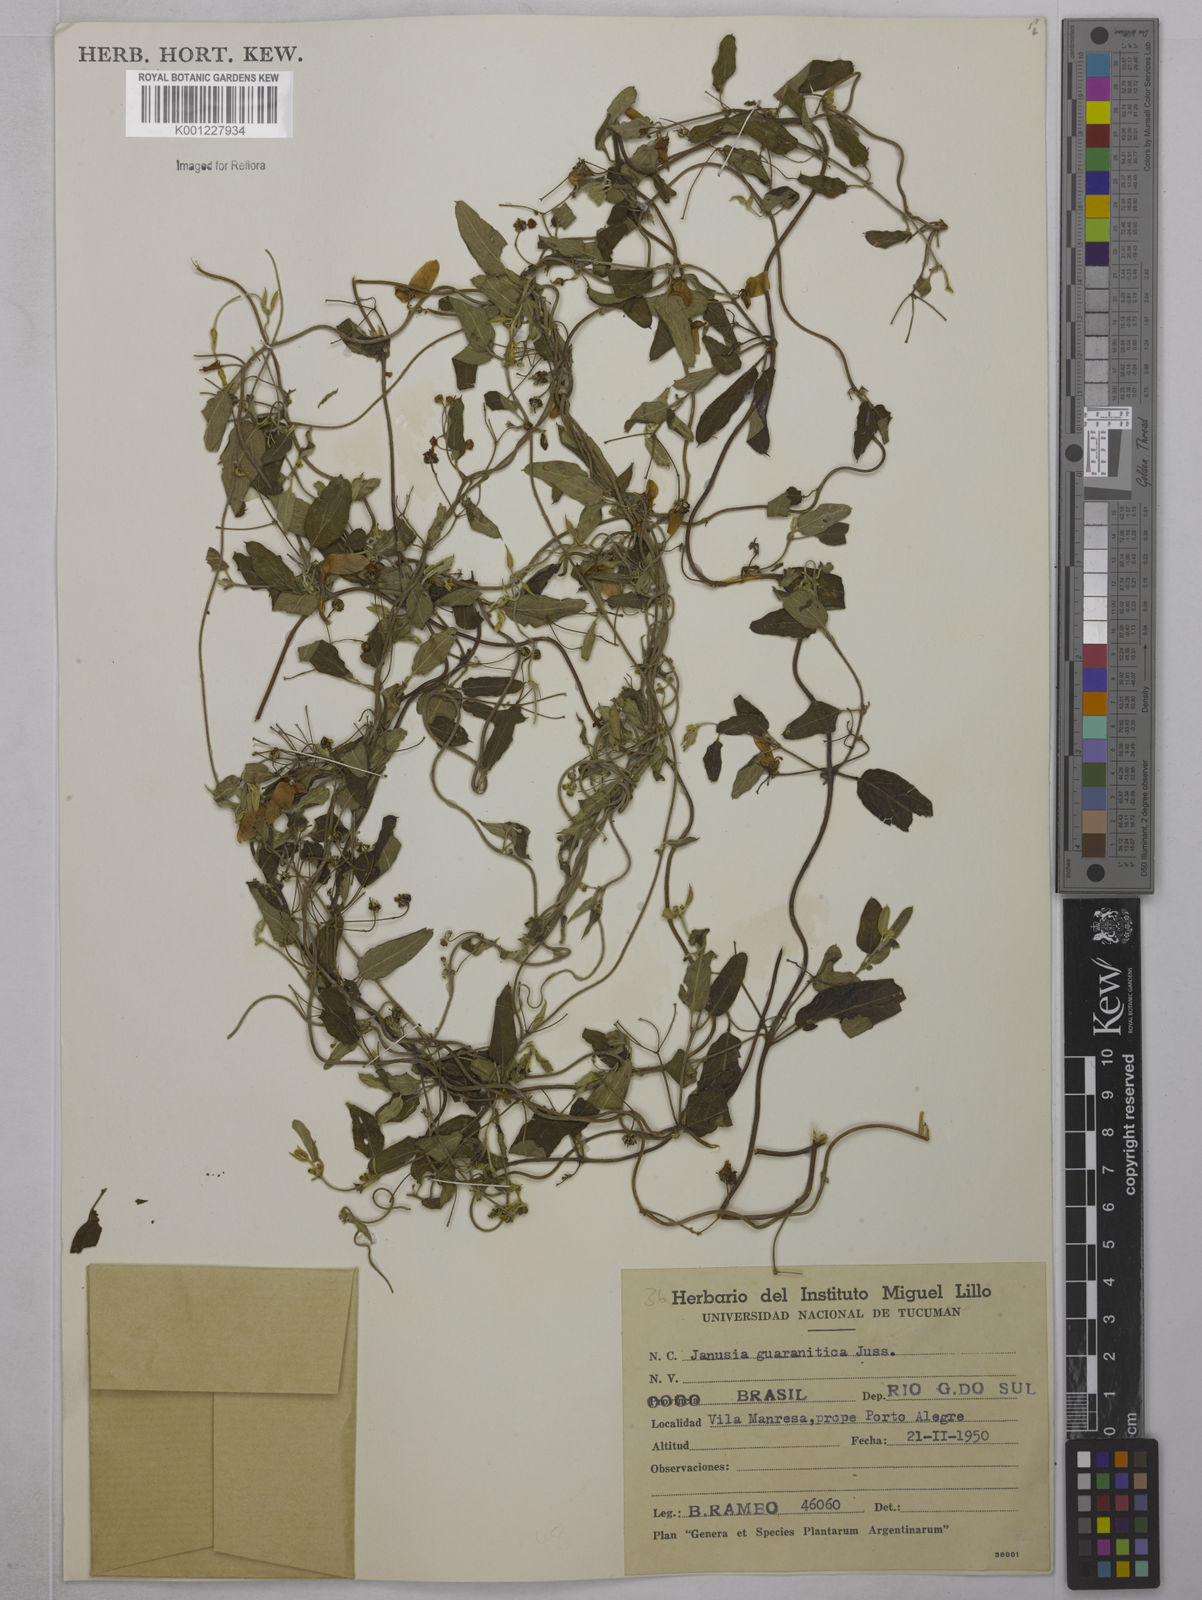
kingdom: Plantae
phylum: Tracheophyta
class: Magnoliopsida
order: Malpighiales
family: Malpighiaceae
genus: Janusia
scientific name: Janusia guaranitica
